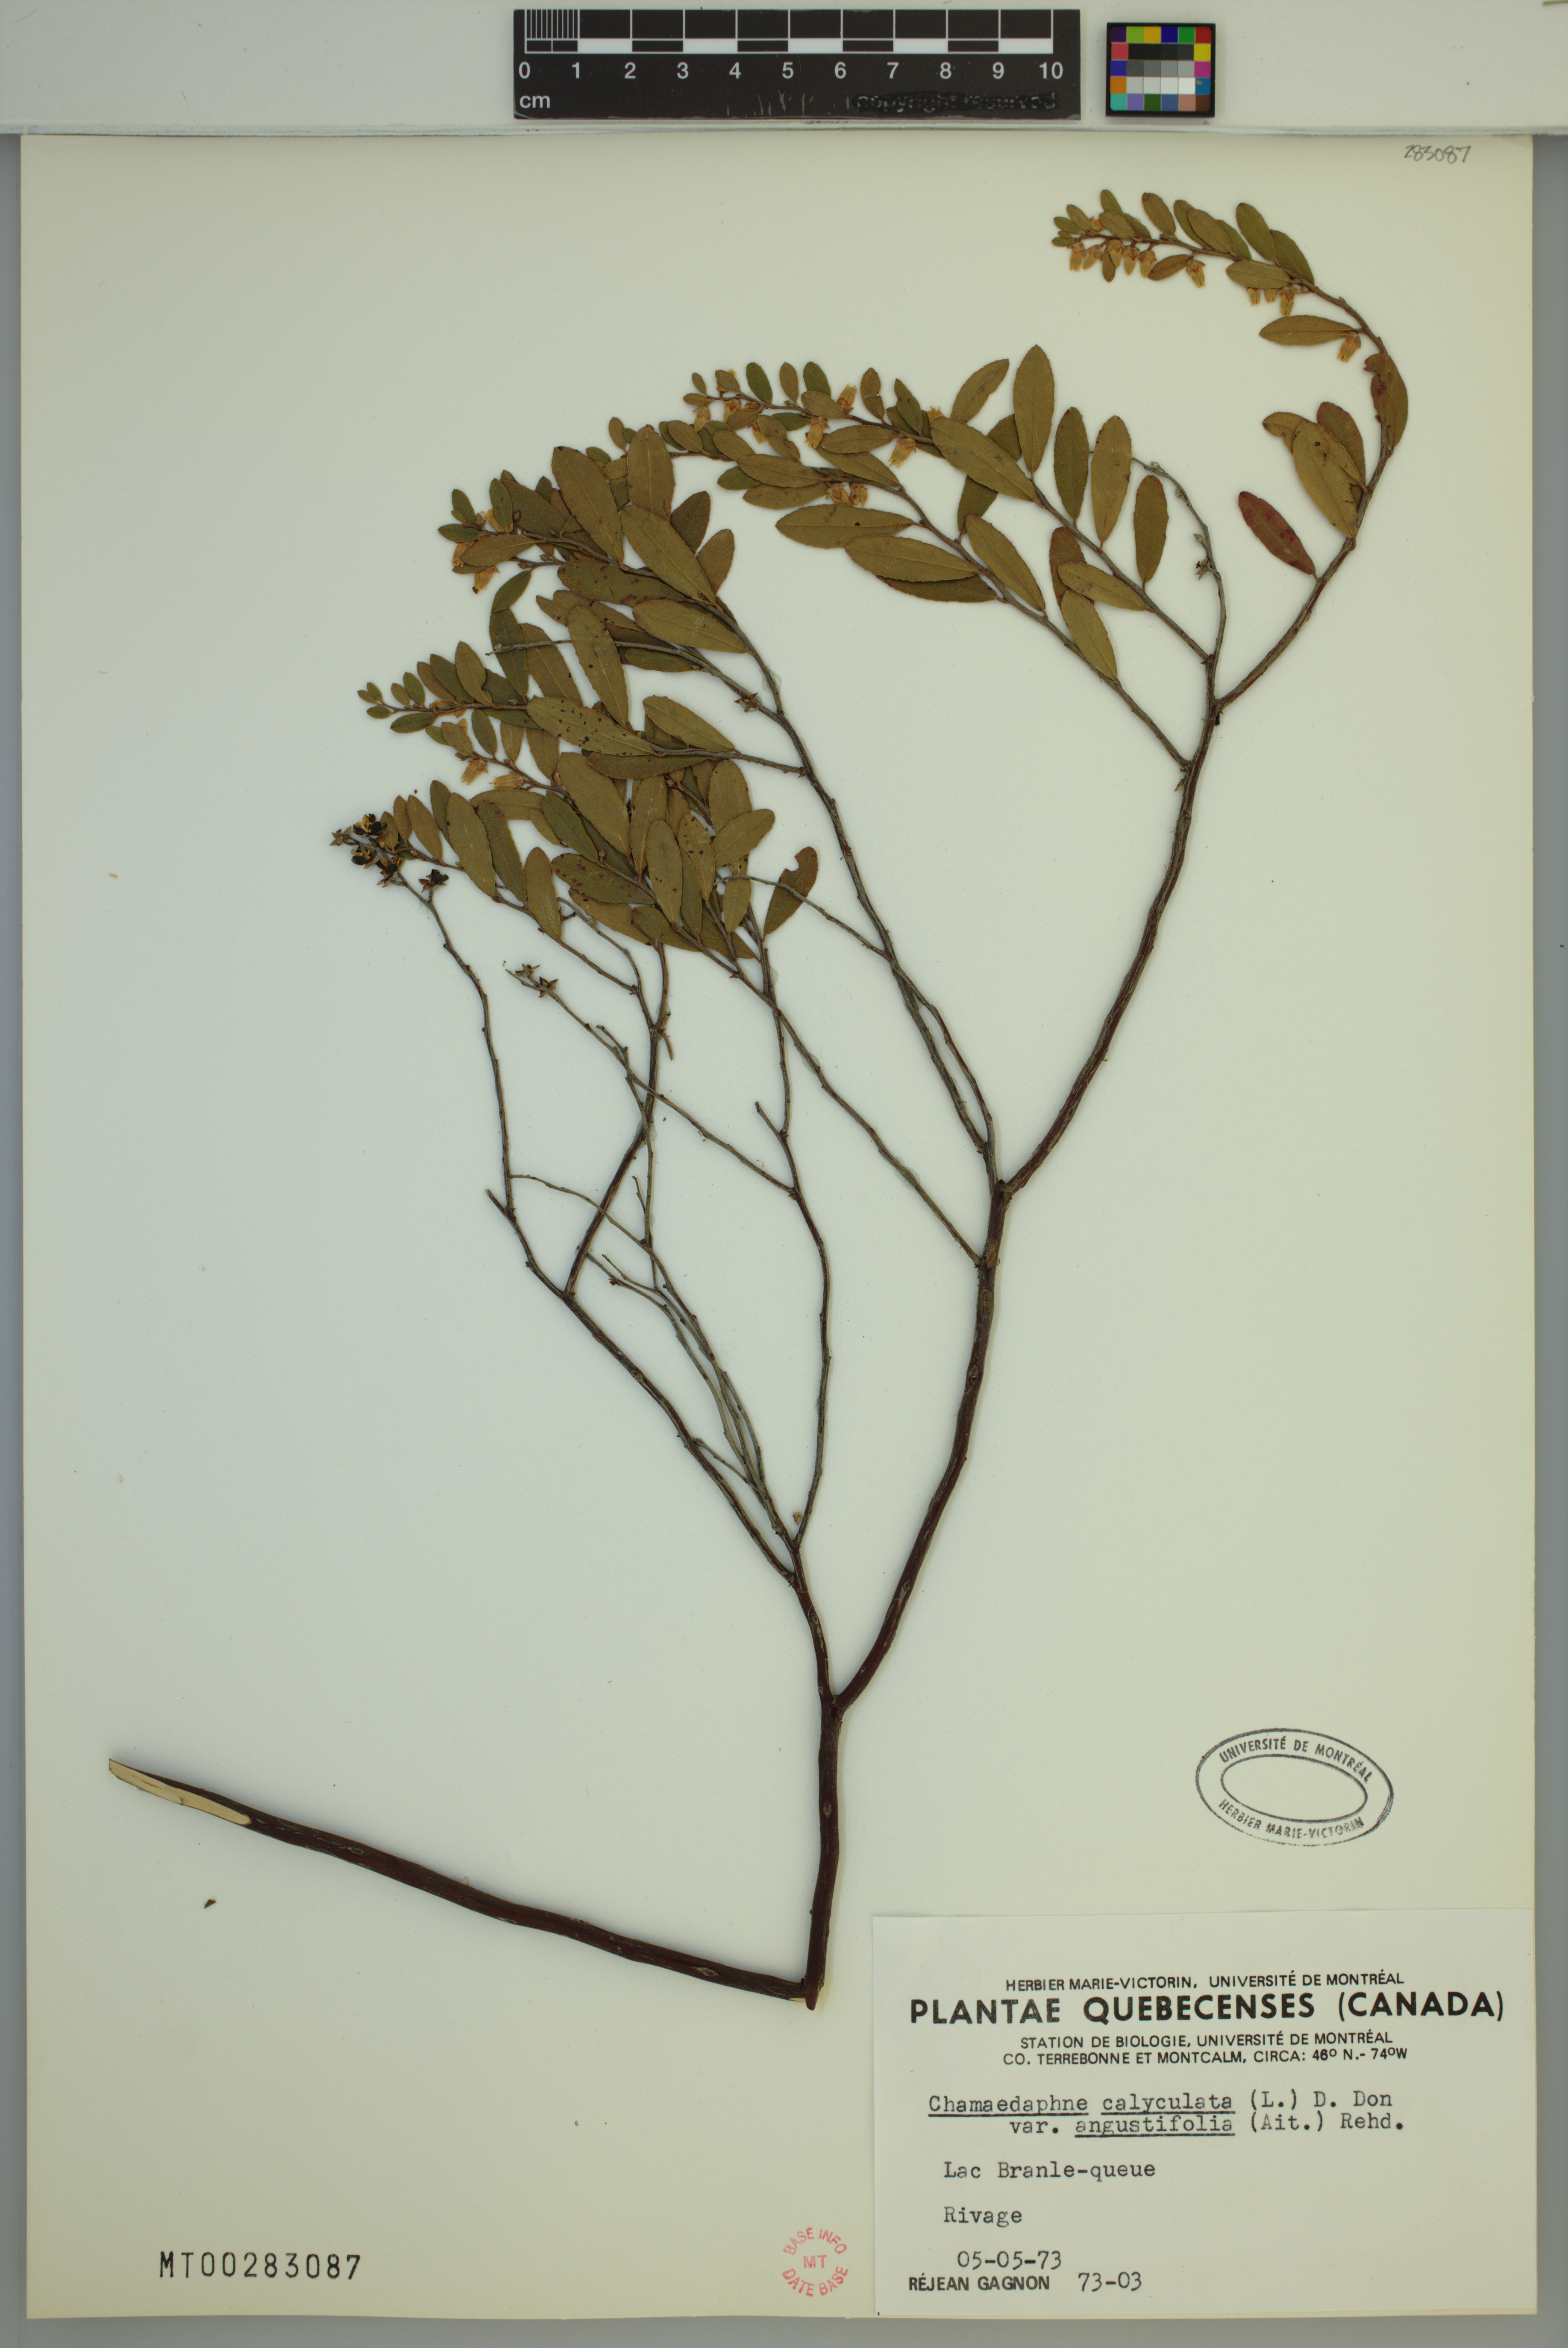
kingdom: Plantae
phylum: Tracheophyta
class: Magnoliopsida
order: Ericales
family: Ericaceae
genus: Chamaedaphne
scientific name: Chamaedaphne calyculata
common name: Leatherleaf
